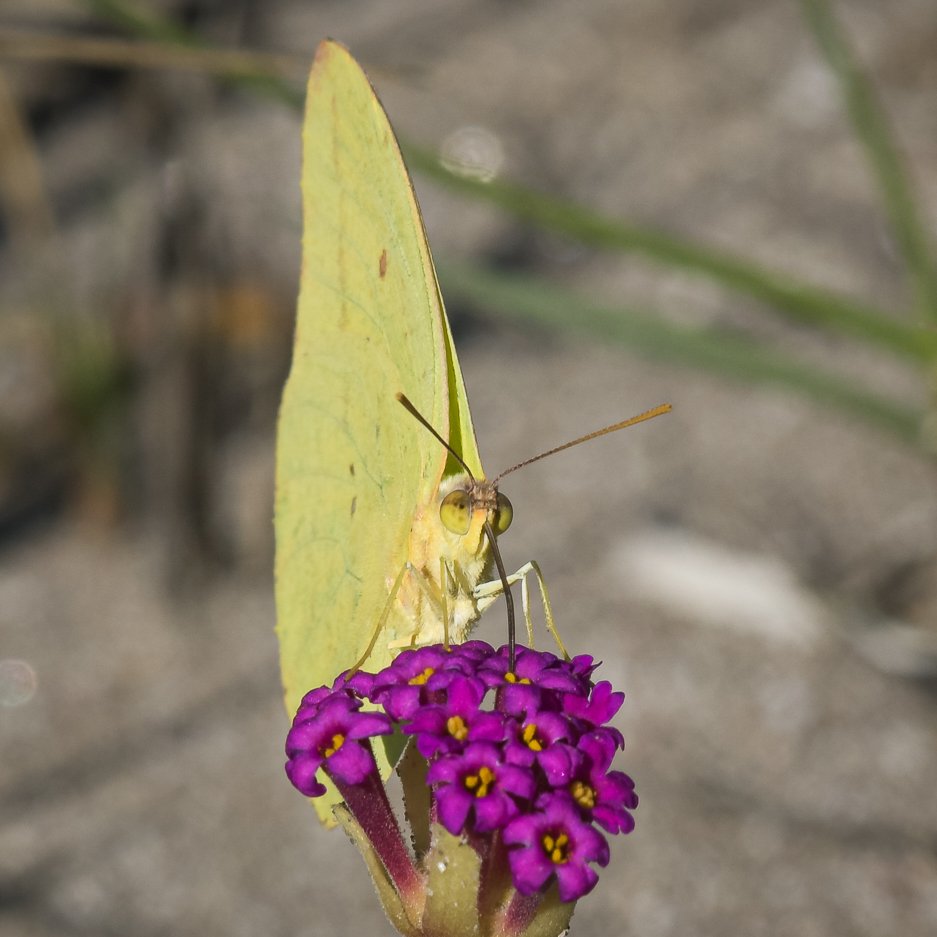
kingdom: Animalia
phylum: Arthropoda
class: Insecta
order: Lepidoptera
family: Pieridae
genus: Phoebis
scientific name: Phoebis sennae
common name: Cloudless Sulphur
